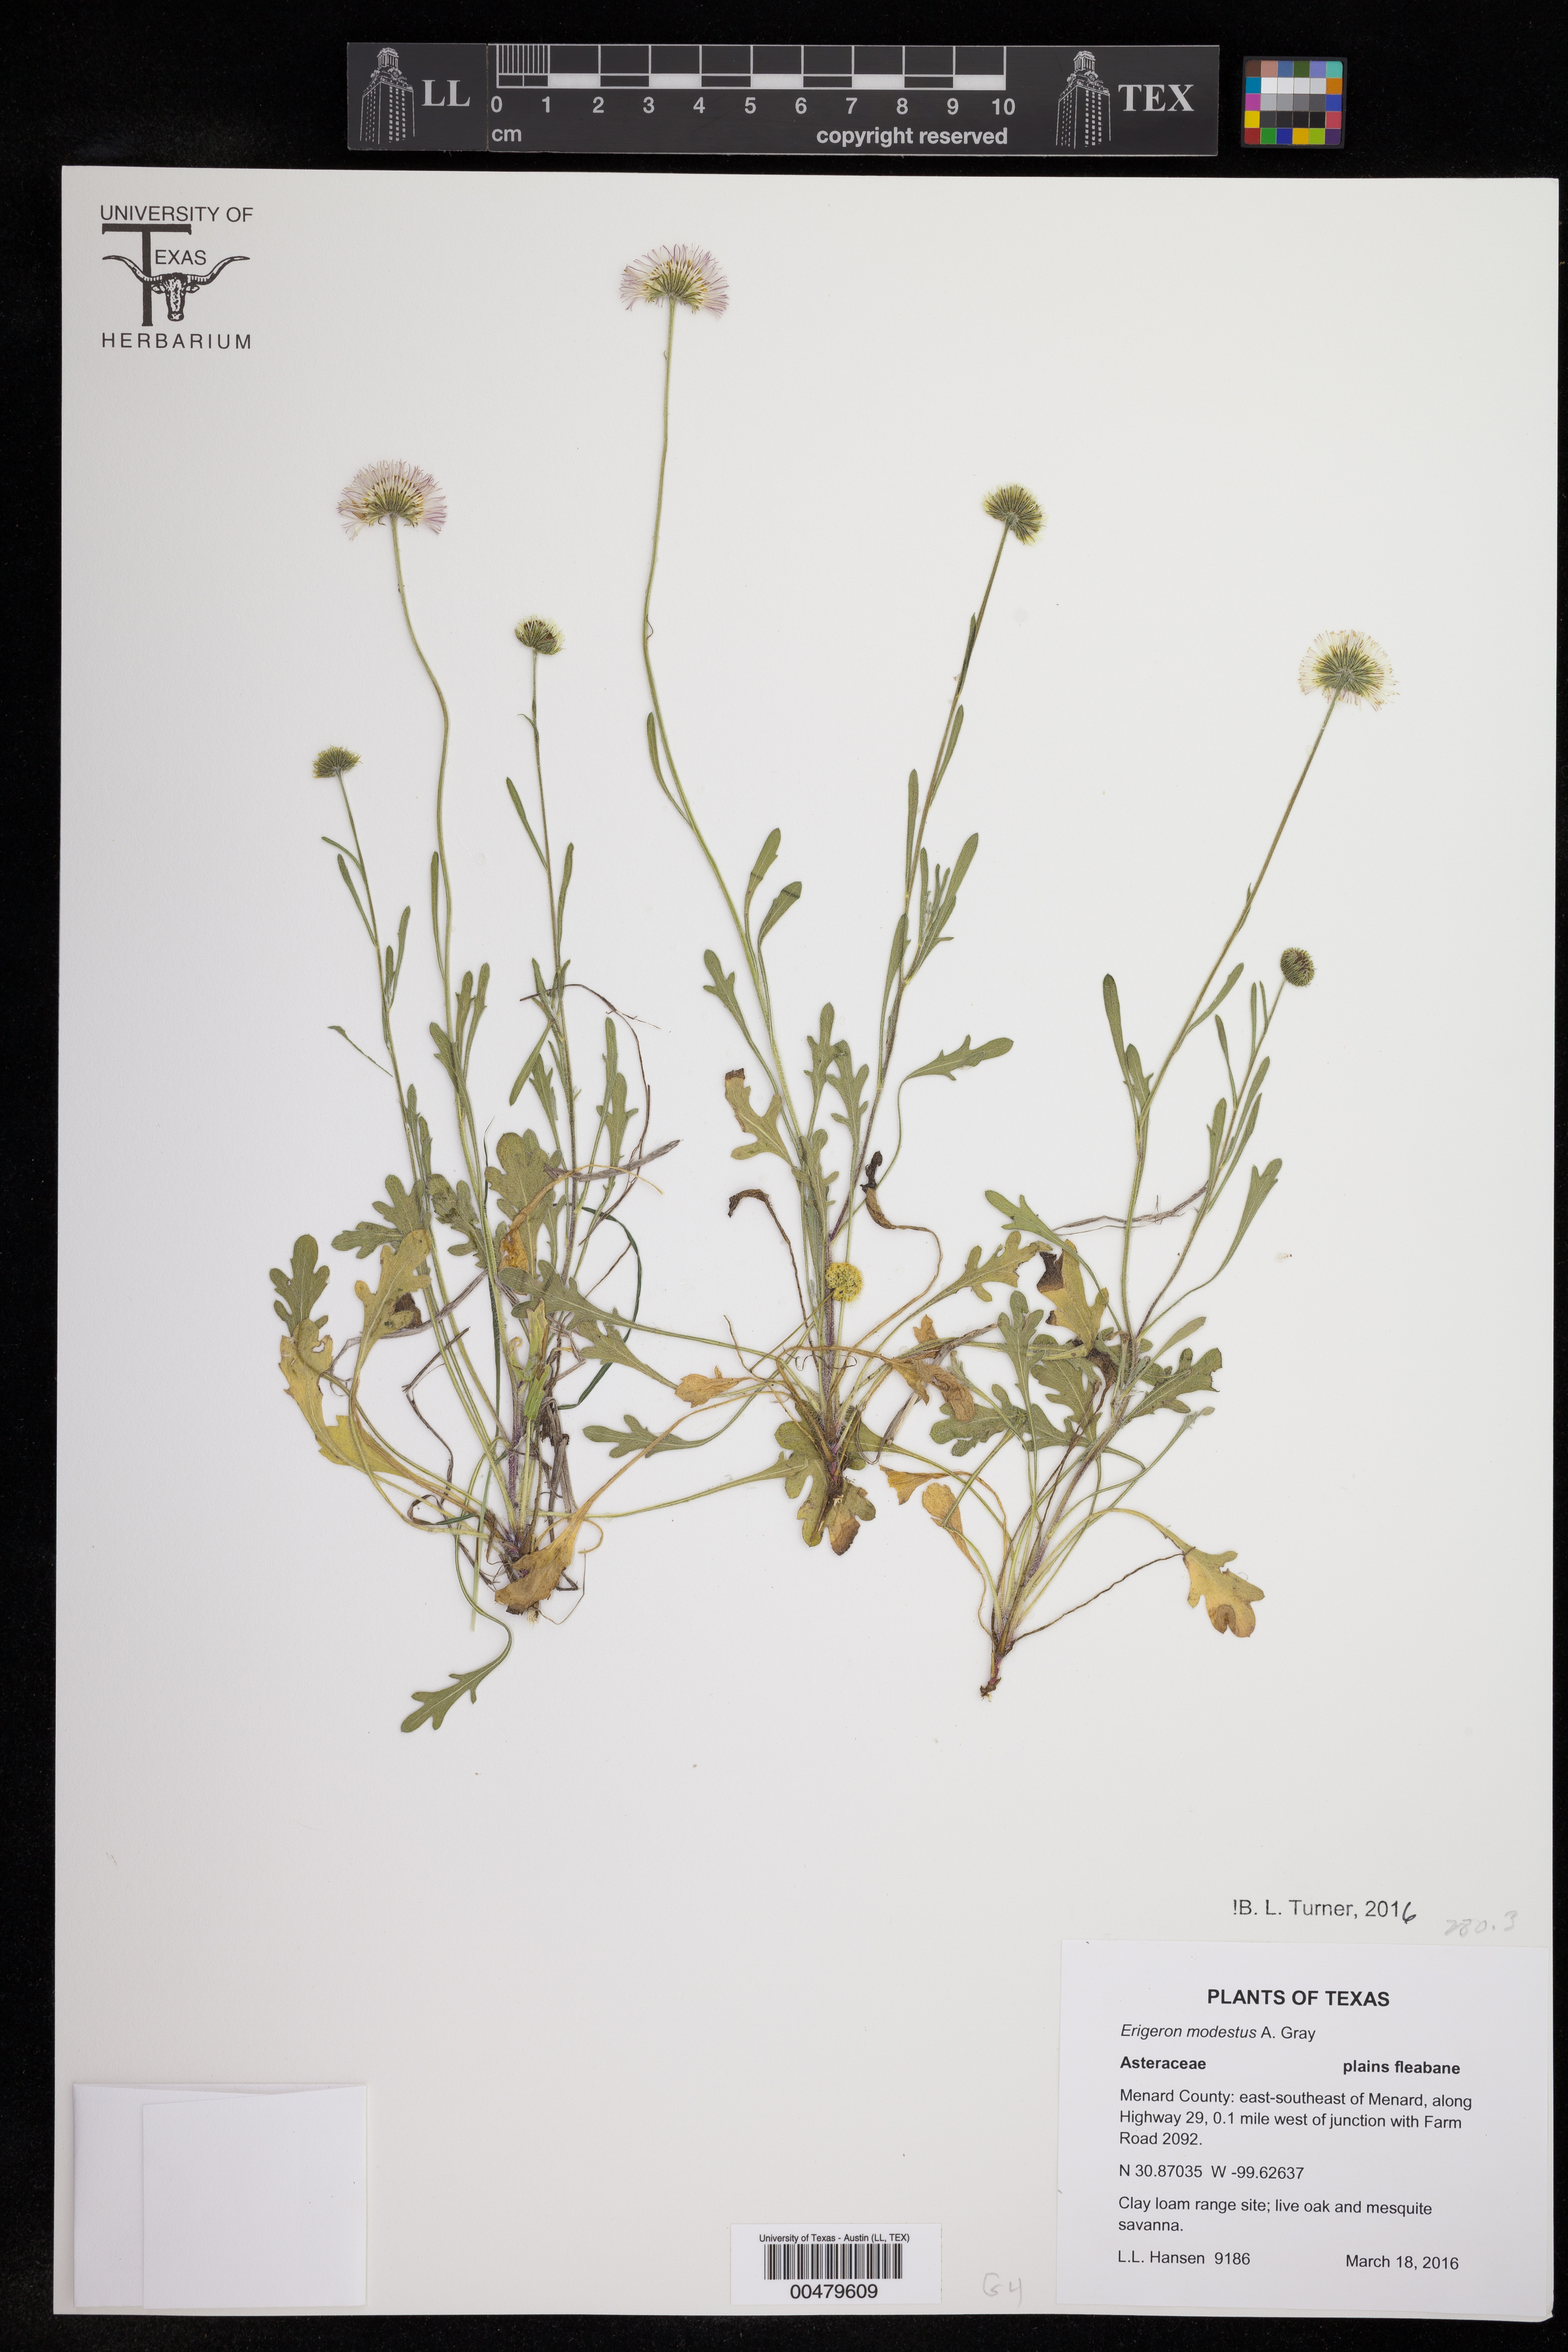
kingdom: Plantae
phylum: Tracheophyta
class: Magnoliopsida
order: Asterales
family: Asteraceae
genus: Erigeron
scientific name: Erigeron modestus
